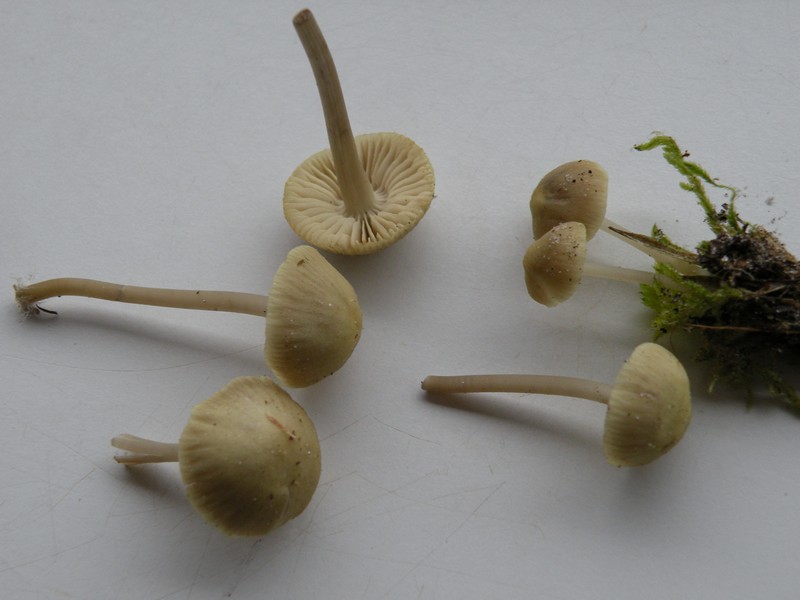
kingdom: Fungi
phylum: Basidiomycota
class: Agaricomycetes
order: Agaricales
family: Mycenaceae
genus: Mycena
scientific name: Mycena chlorantha
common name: klit-huesvamp
